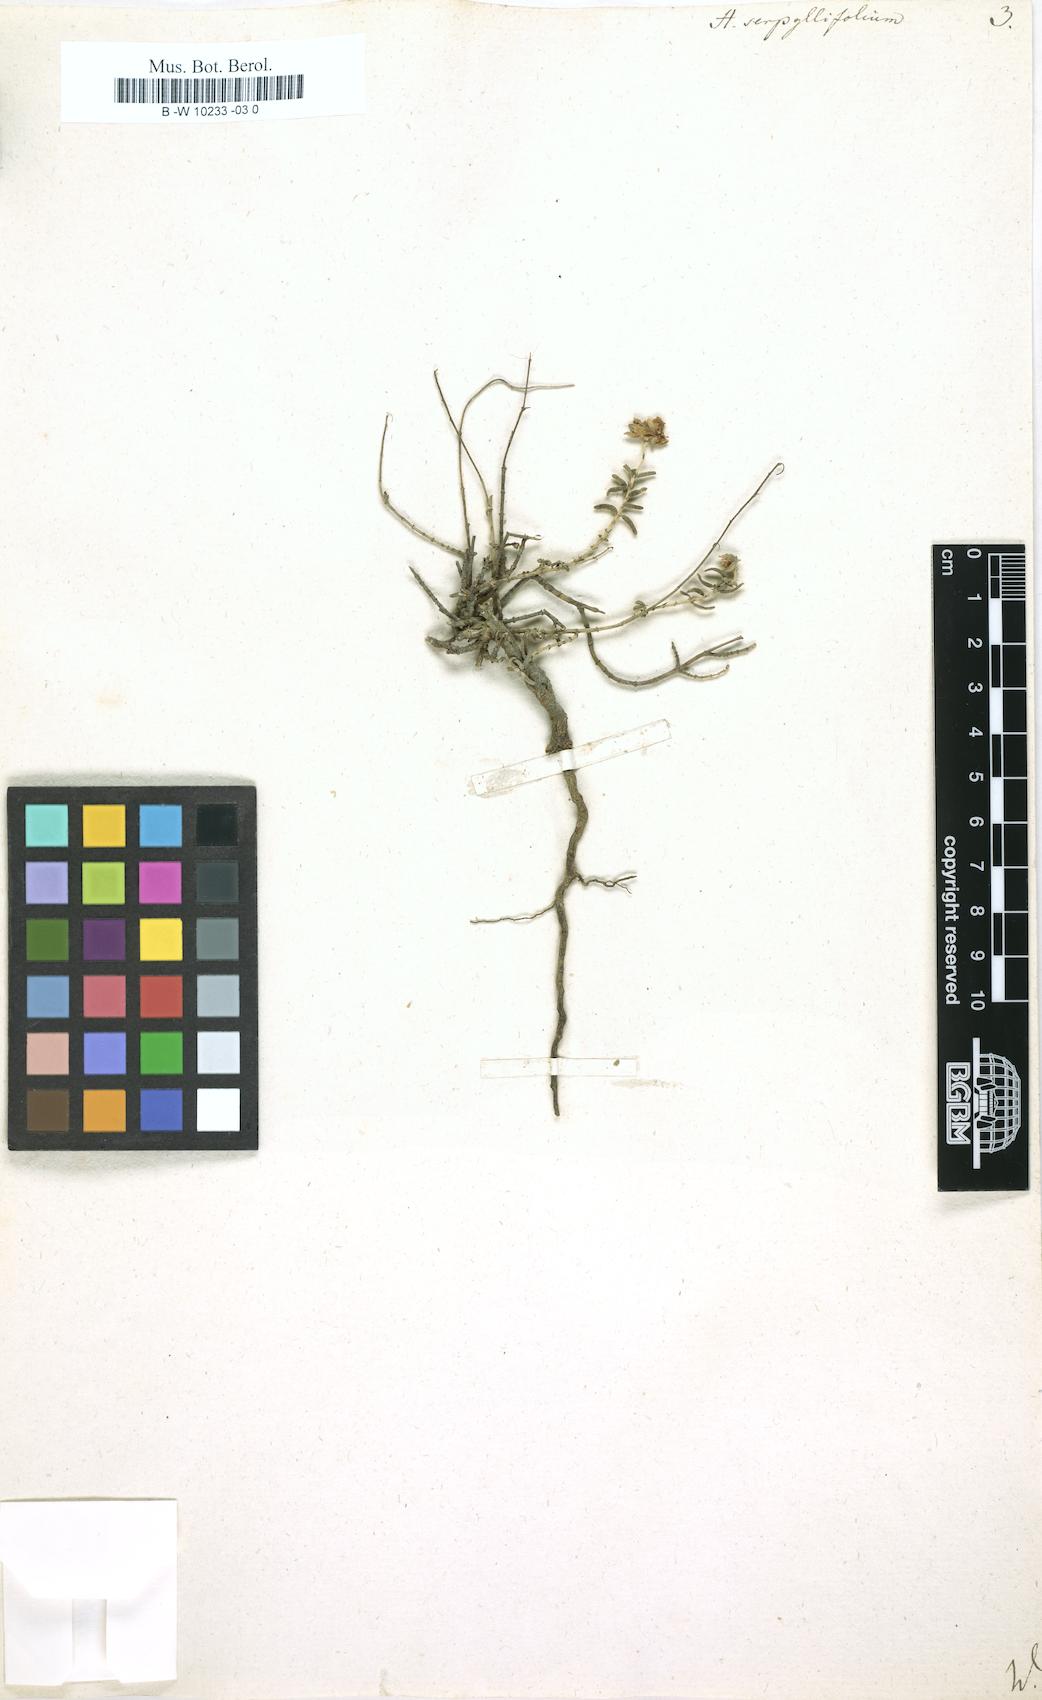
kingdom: Plantae
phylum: Tracheophyta
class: Magnoliopsida
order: Malvales
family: Cistaceae
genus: Helianthemum
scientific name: Helianthemum nummularium
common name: Common rock-rose
